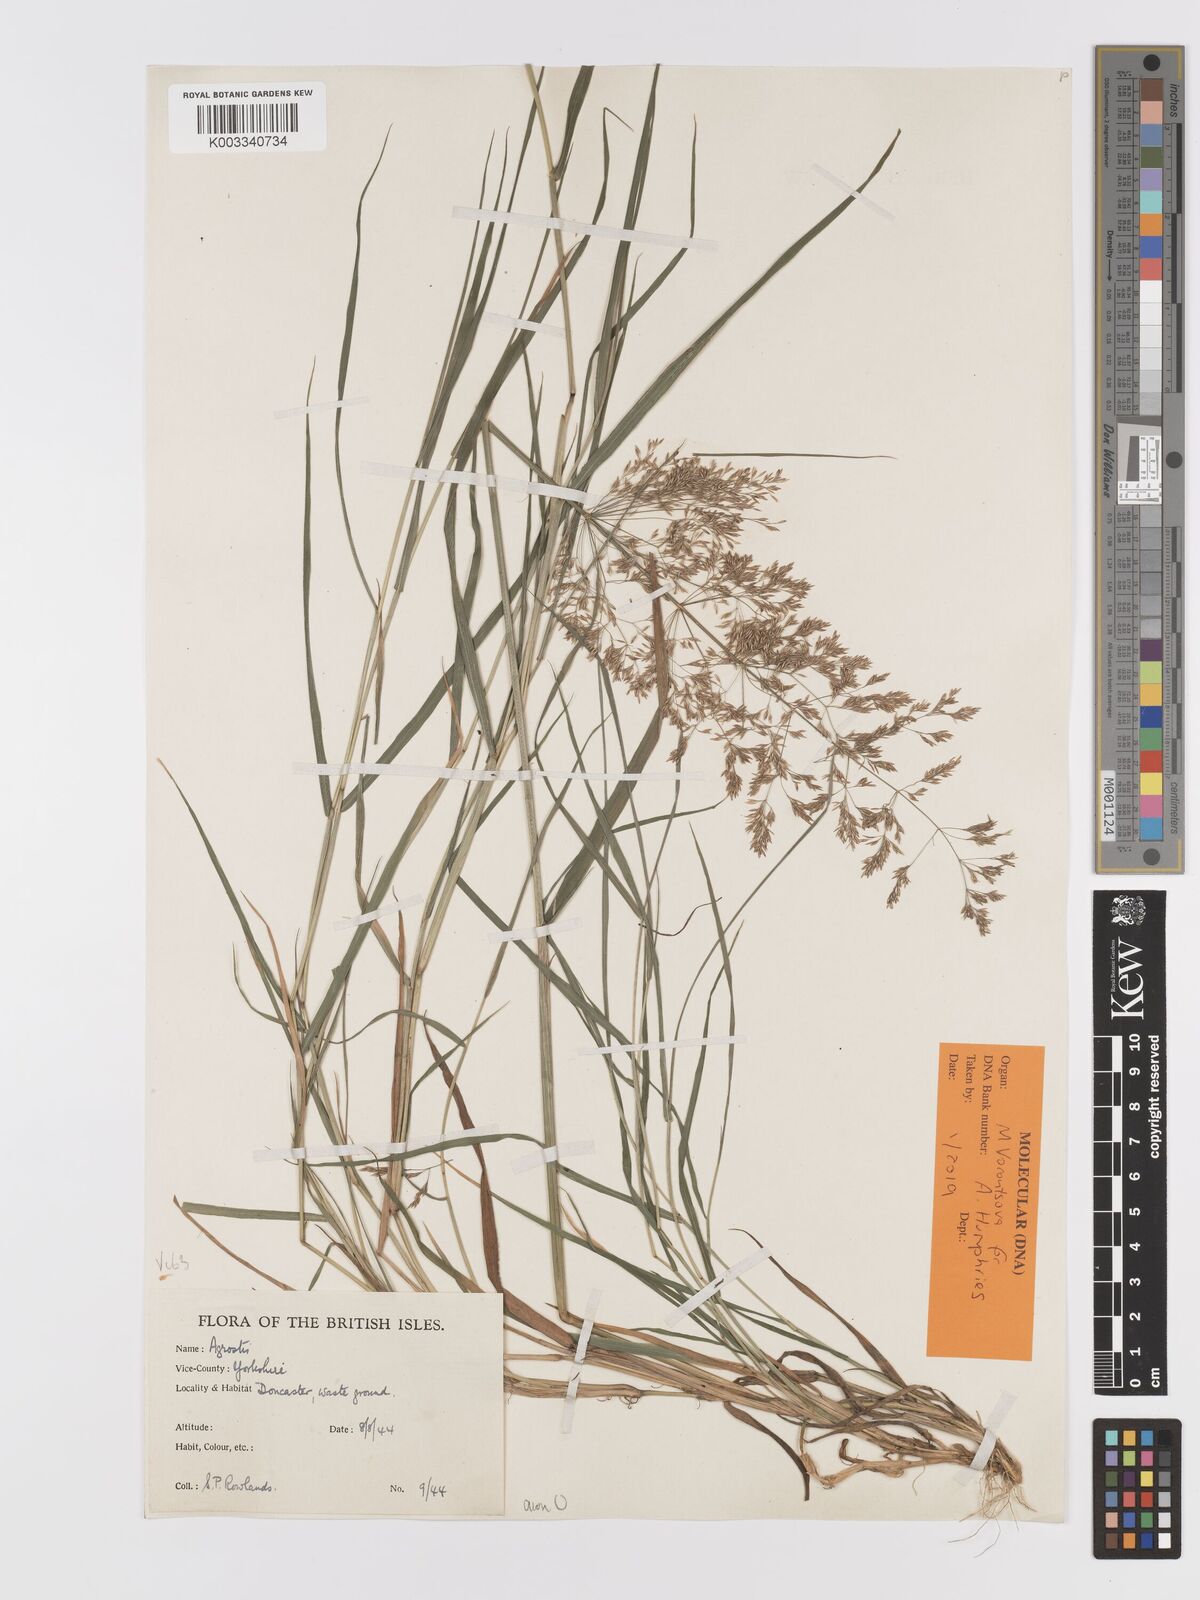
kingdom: Plantae
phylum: Tracheophyta
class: Liliopsida
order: Poales
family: Poaceae
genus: Agrostis
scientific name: Agrostis capillaris
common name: Colonial bentgrass
